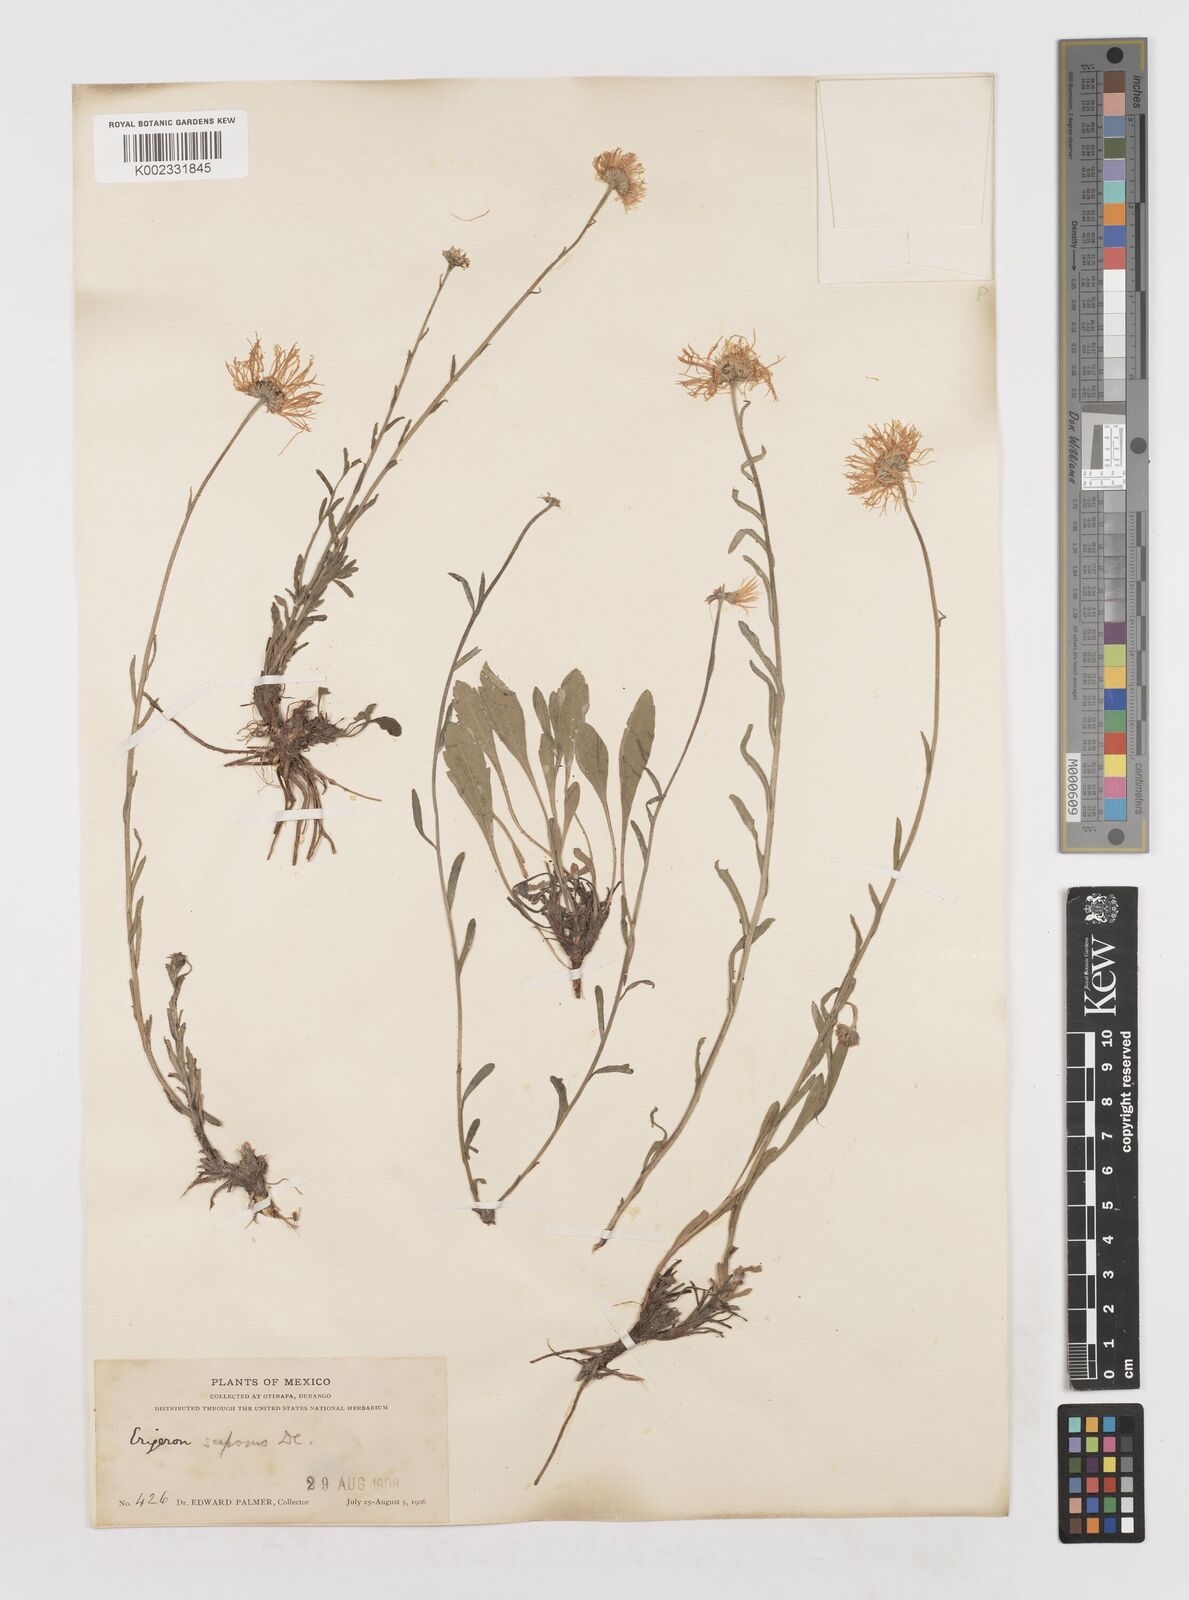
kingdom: Plantae
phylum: Tracheophyta
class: Magnoliopsida
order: Asterales
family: Asteraceae
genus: Erigeron
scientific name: Erigeron longipes
